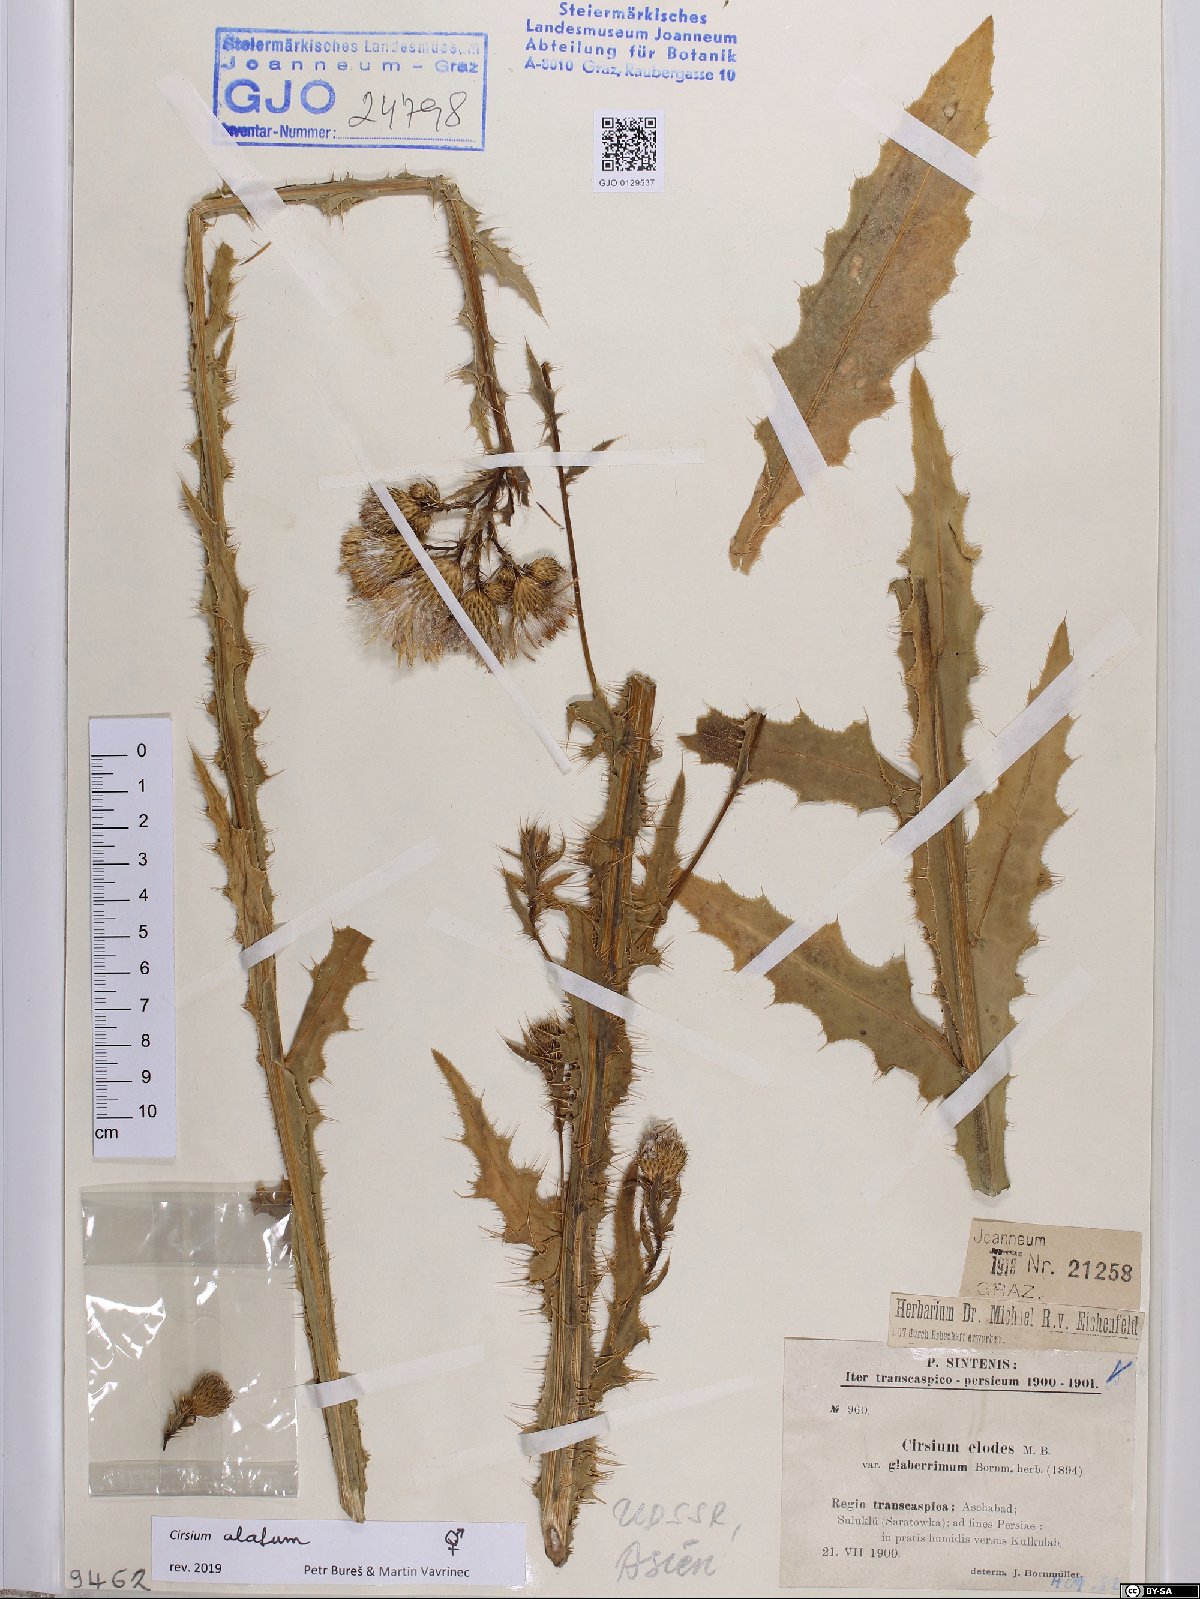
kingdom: Plantae
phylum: Tracheophyta
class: Magnoliopsida
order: Asterales
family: Asteraceae
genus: Cirsium
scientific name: Cirsium alatum
